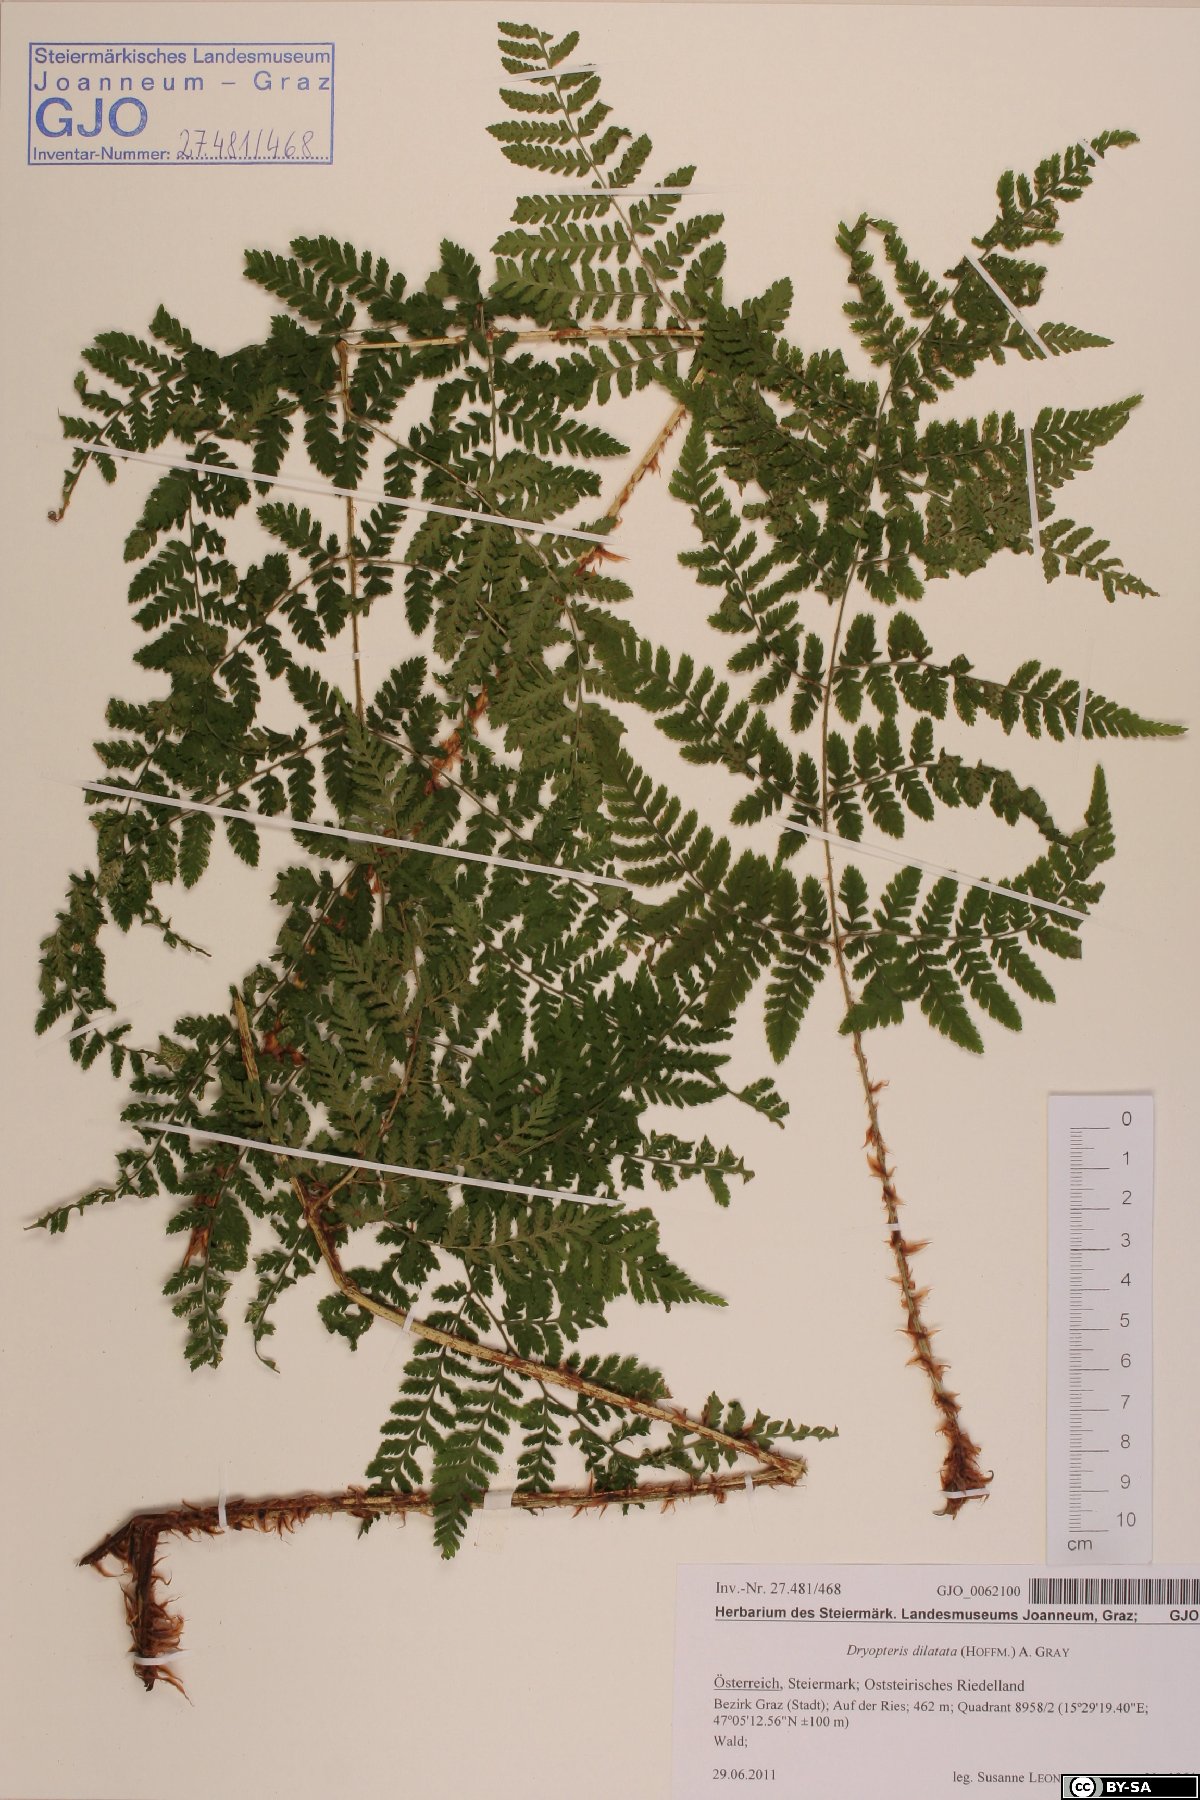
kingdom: Plantae
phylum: Tracheophyta
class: Polypodiopsida
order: Polypodiales
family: Dryopteridaceae
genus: Dryopteris
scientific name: Dryopteris dilatata
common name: Broad buckler-fern
